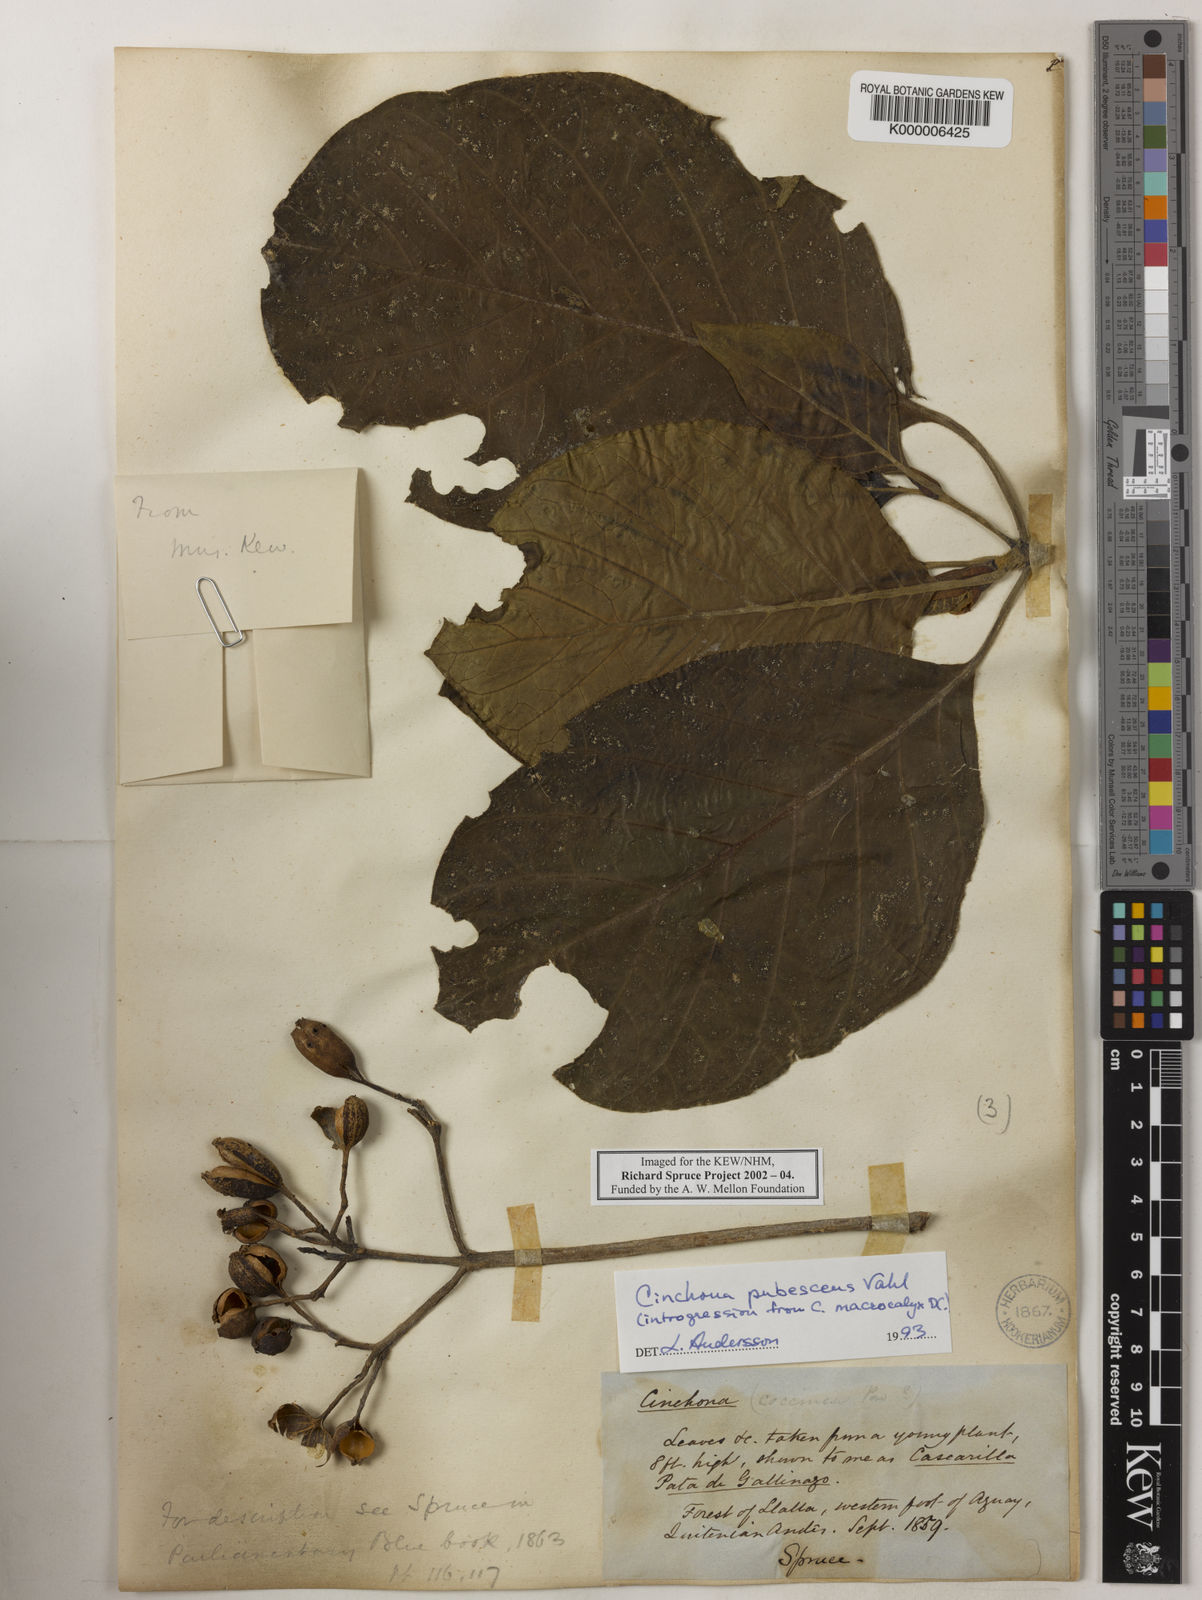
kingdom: Plantae
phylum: Tracheophyta
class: Magnoliopsida
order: Gentianales
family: Rubiaceae
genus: Cinchona
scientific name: Cinchona pubescens
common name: Quinine
